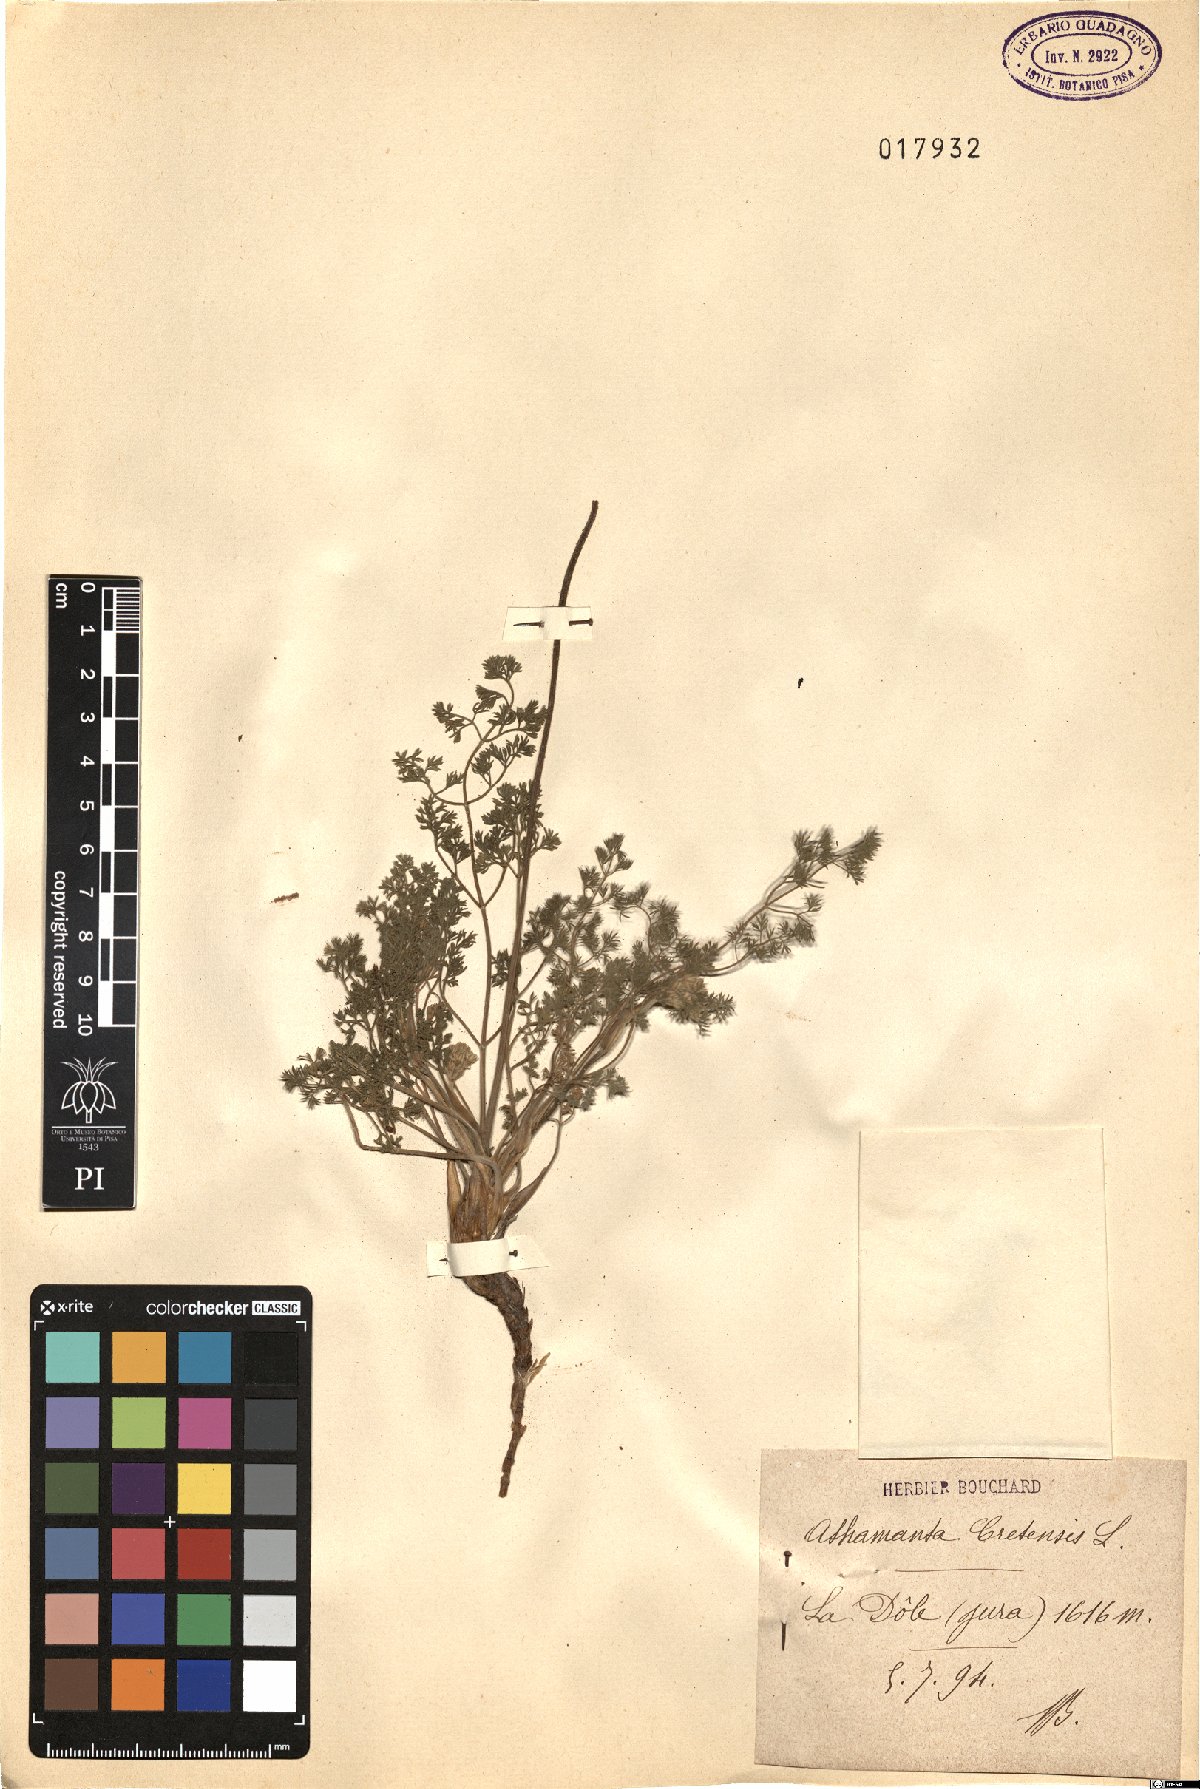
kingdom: Plantae
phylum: Tracheophyta
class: Magnoliopsida
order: Apiales
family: Apiaceae
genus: Athamanta
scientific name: Athamanta cretensis
